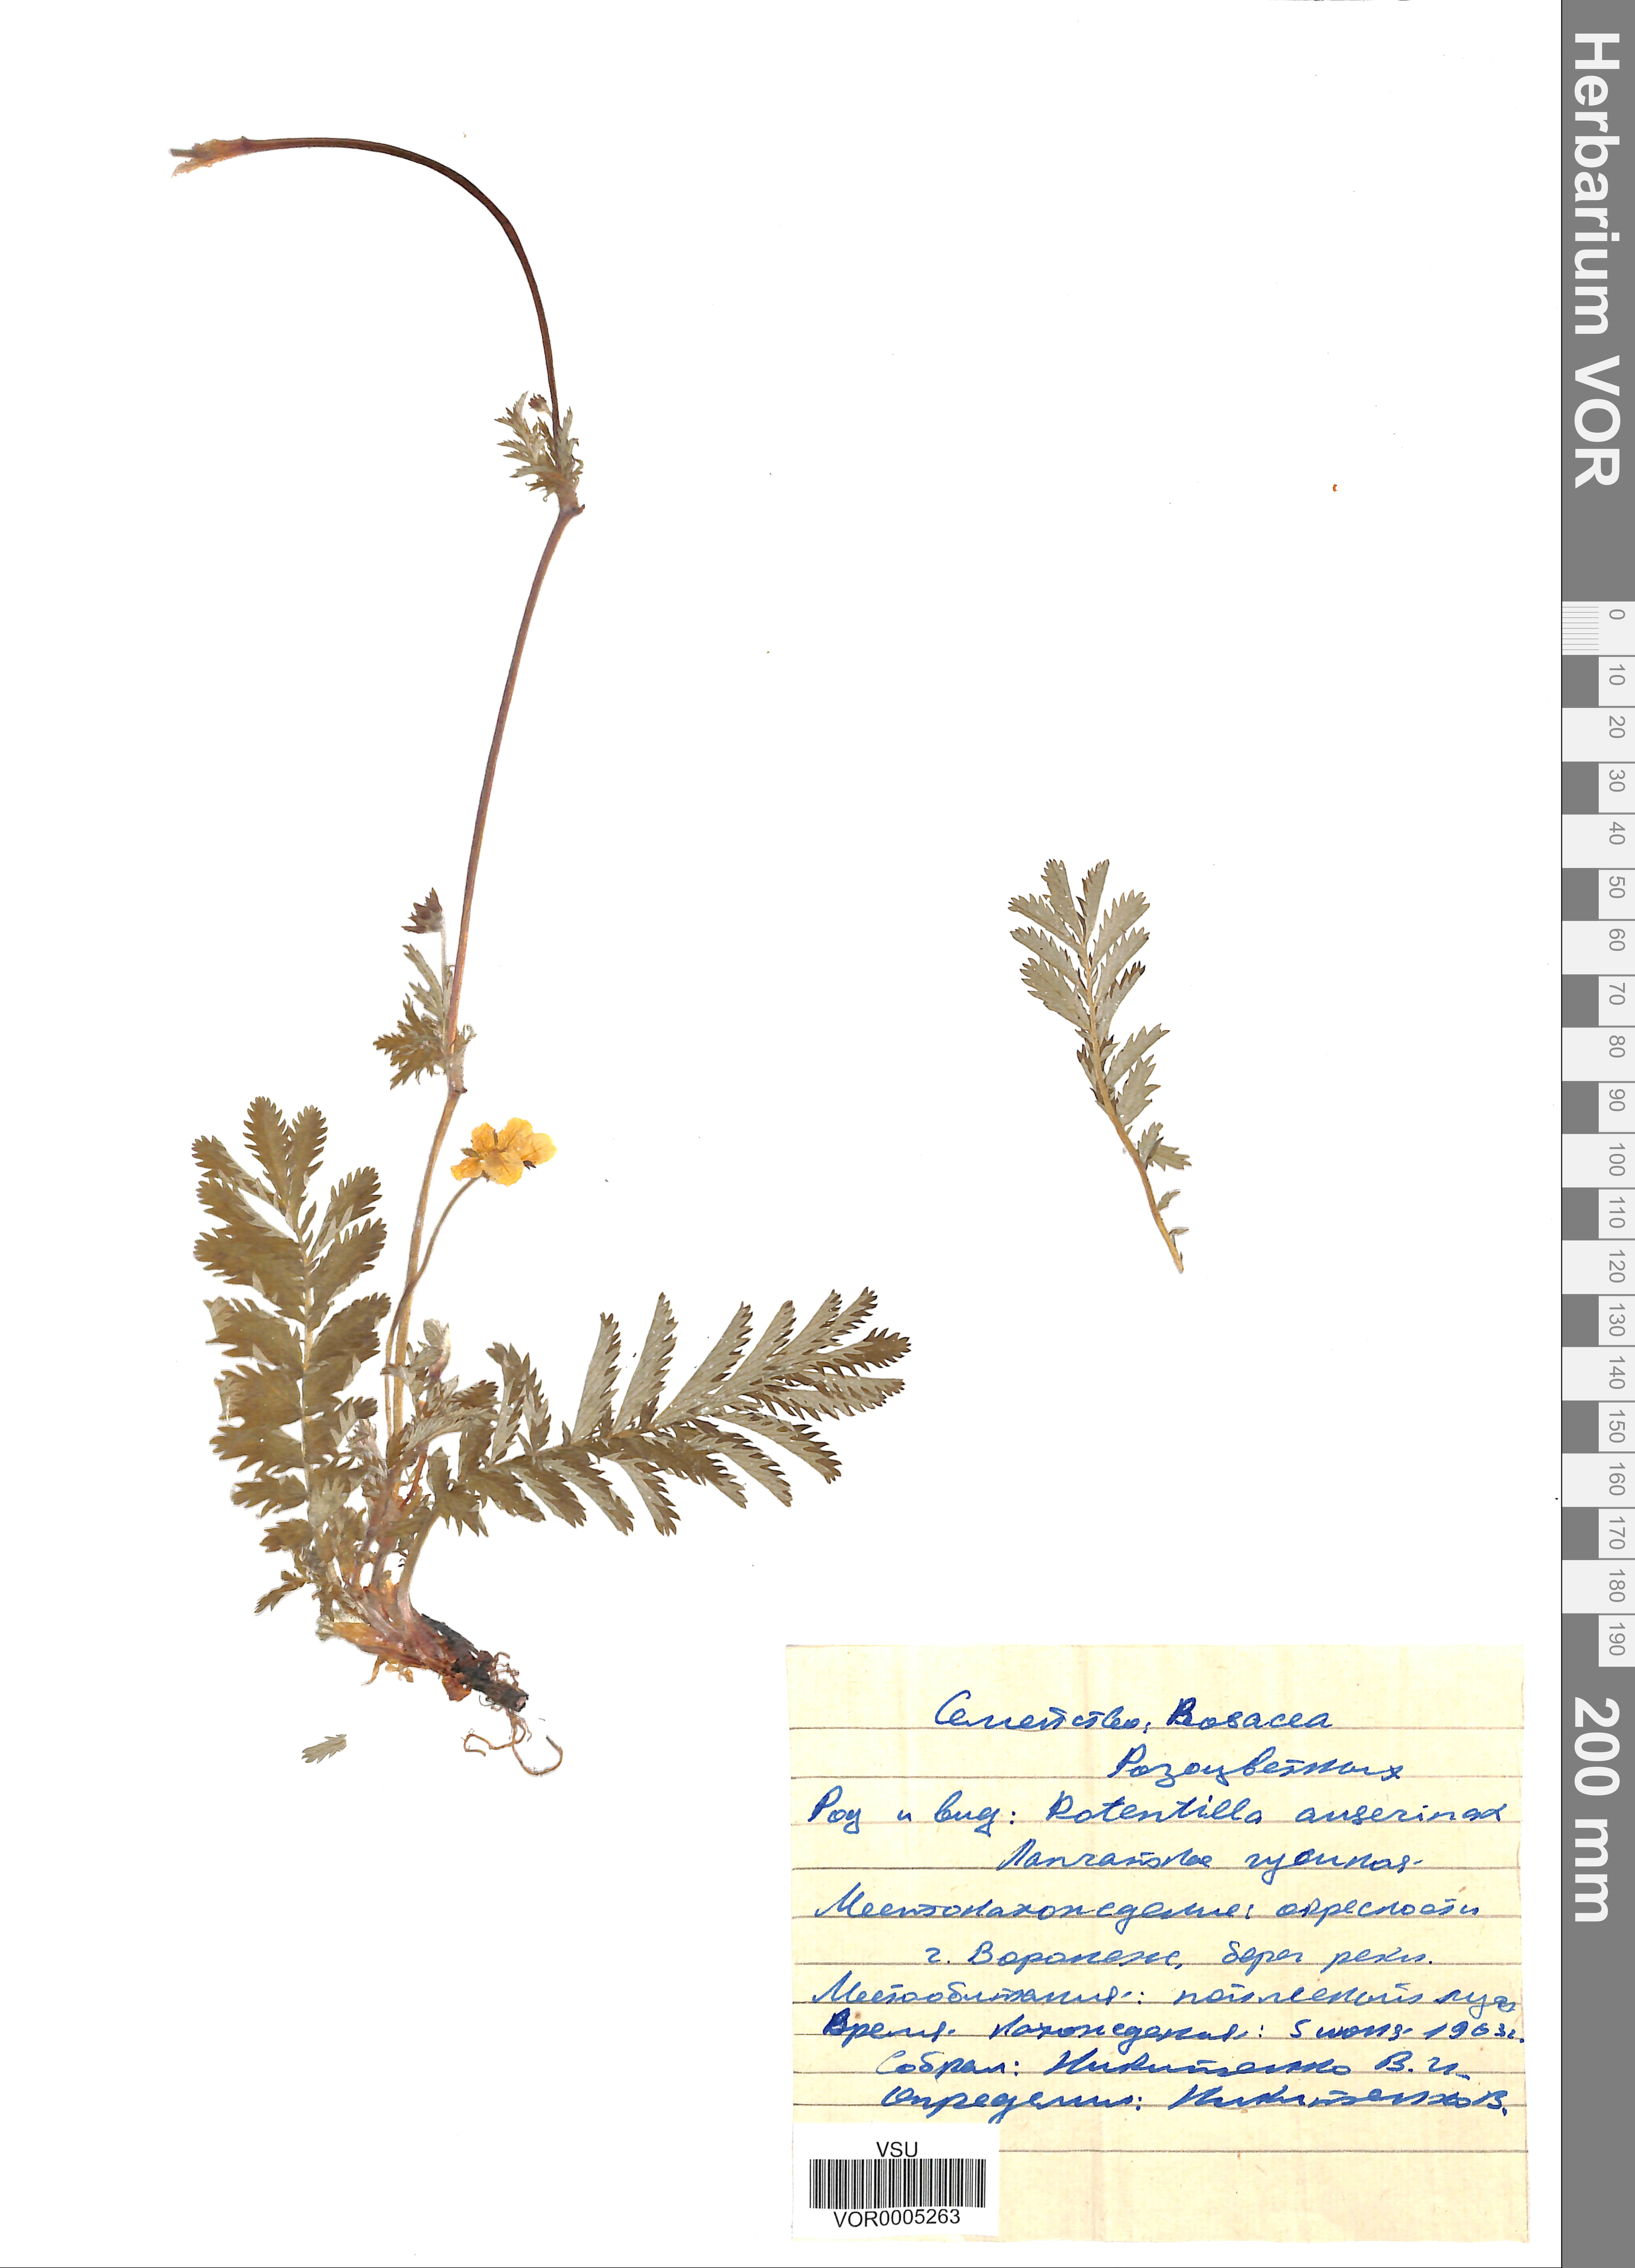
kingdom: Plantae
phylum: Tracheophyta
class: Magnoliopsida
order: Rosales
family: Rosaceae
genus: Argentina
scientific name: Argentina anserina
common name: Common silverweed
